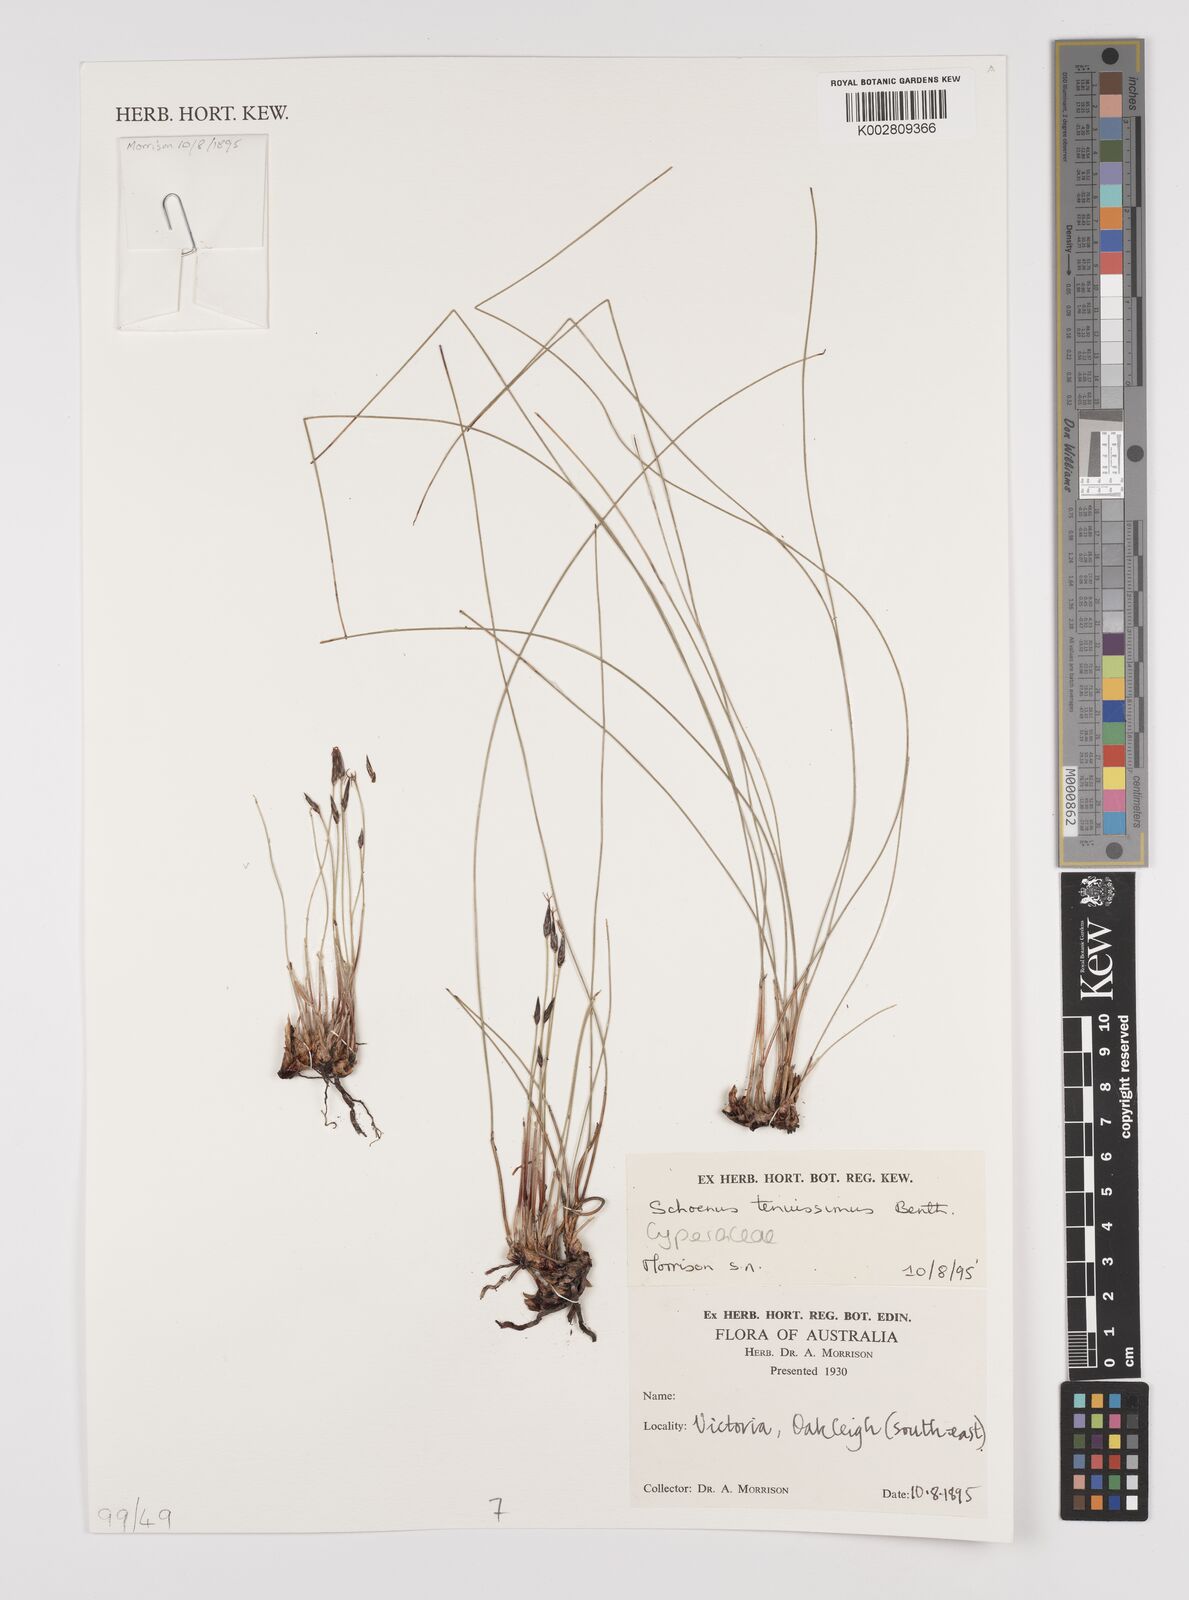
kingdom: Plantae
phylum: Tracheophyta
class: Liliopsida
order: Poales
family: Cyperaceae
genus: Schoenus
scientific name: Schoenus tenuissimus
